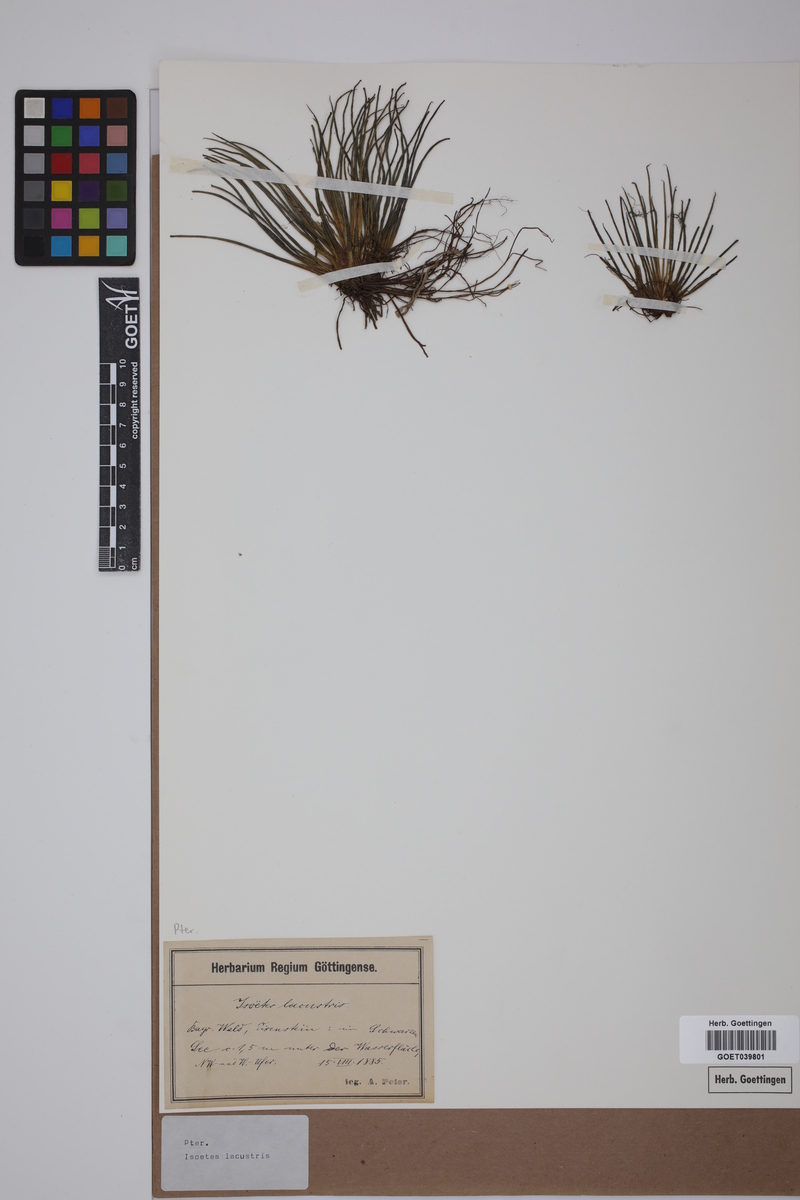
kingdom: Plantae
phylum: Tracheophyta
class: Lycopodiopsida
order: Isoetales
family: Isoetaceae
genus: Isoetes
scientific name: Isoetes lacustris
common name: Common quillwort
